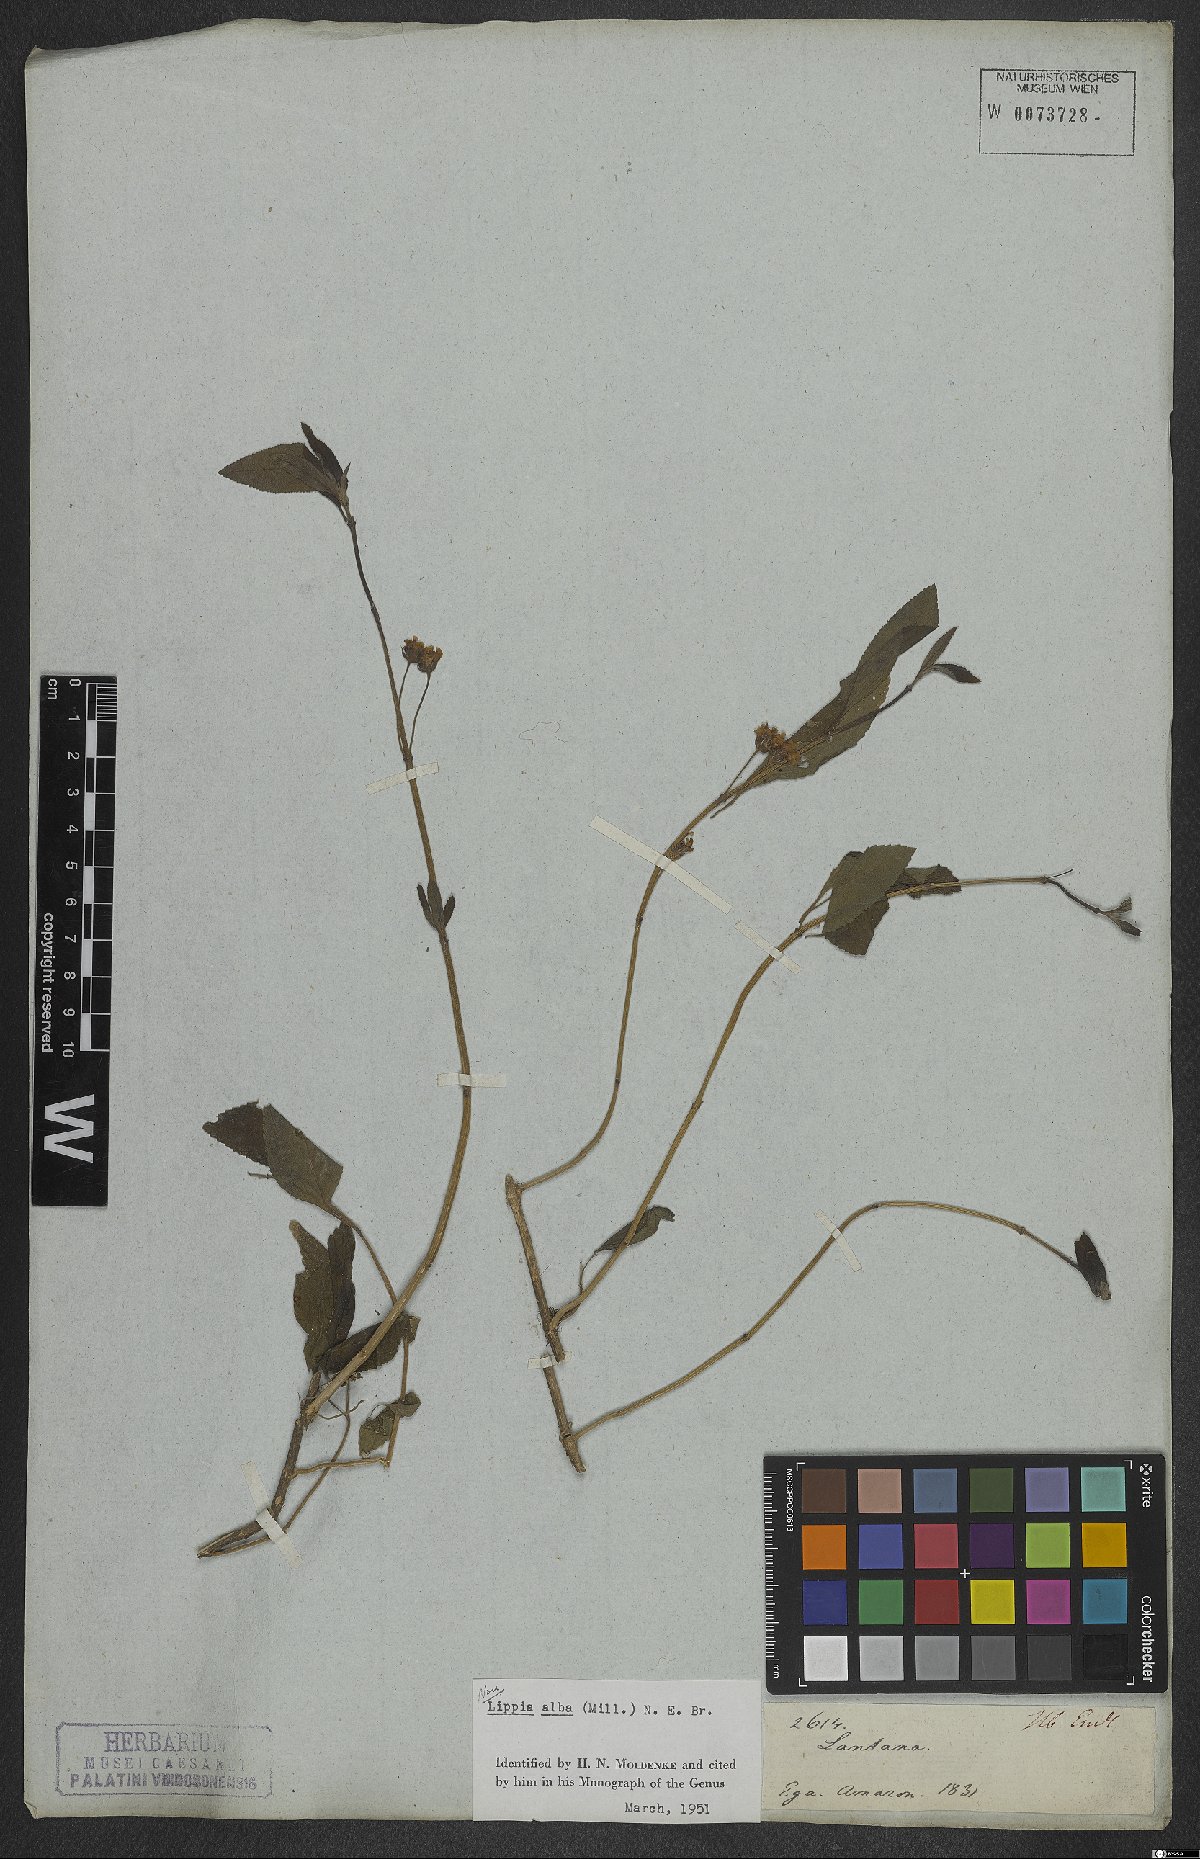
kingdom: Plantae
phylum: Tracheophyta
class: Magnoliopsida
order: Lamiales
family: Verbenaceae
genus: Lippia
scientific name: Lippia alba
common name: Bushy matgrass
